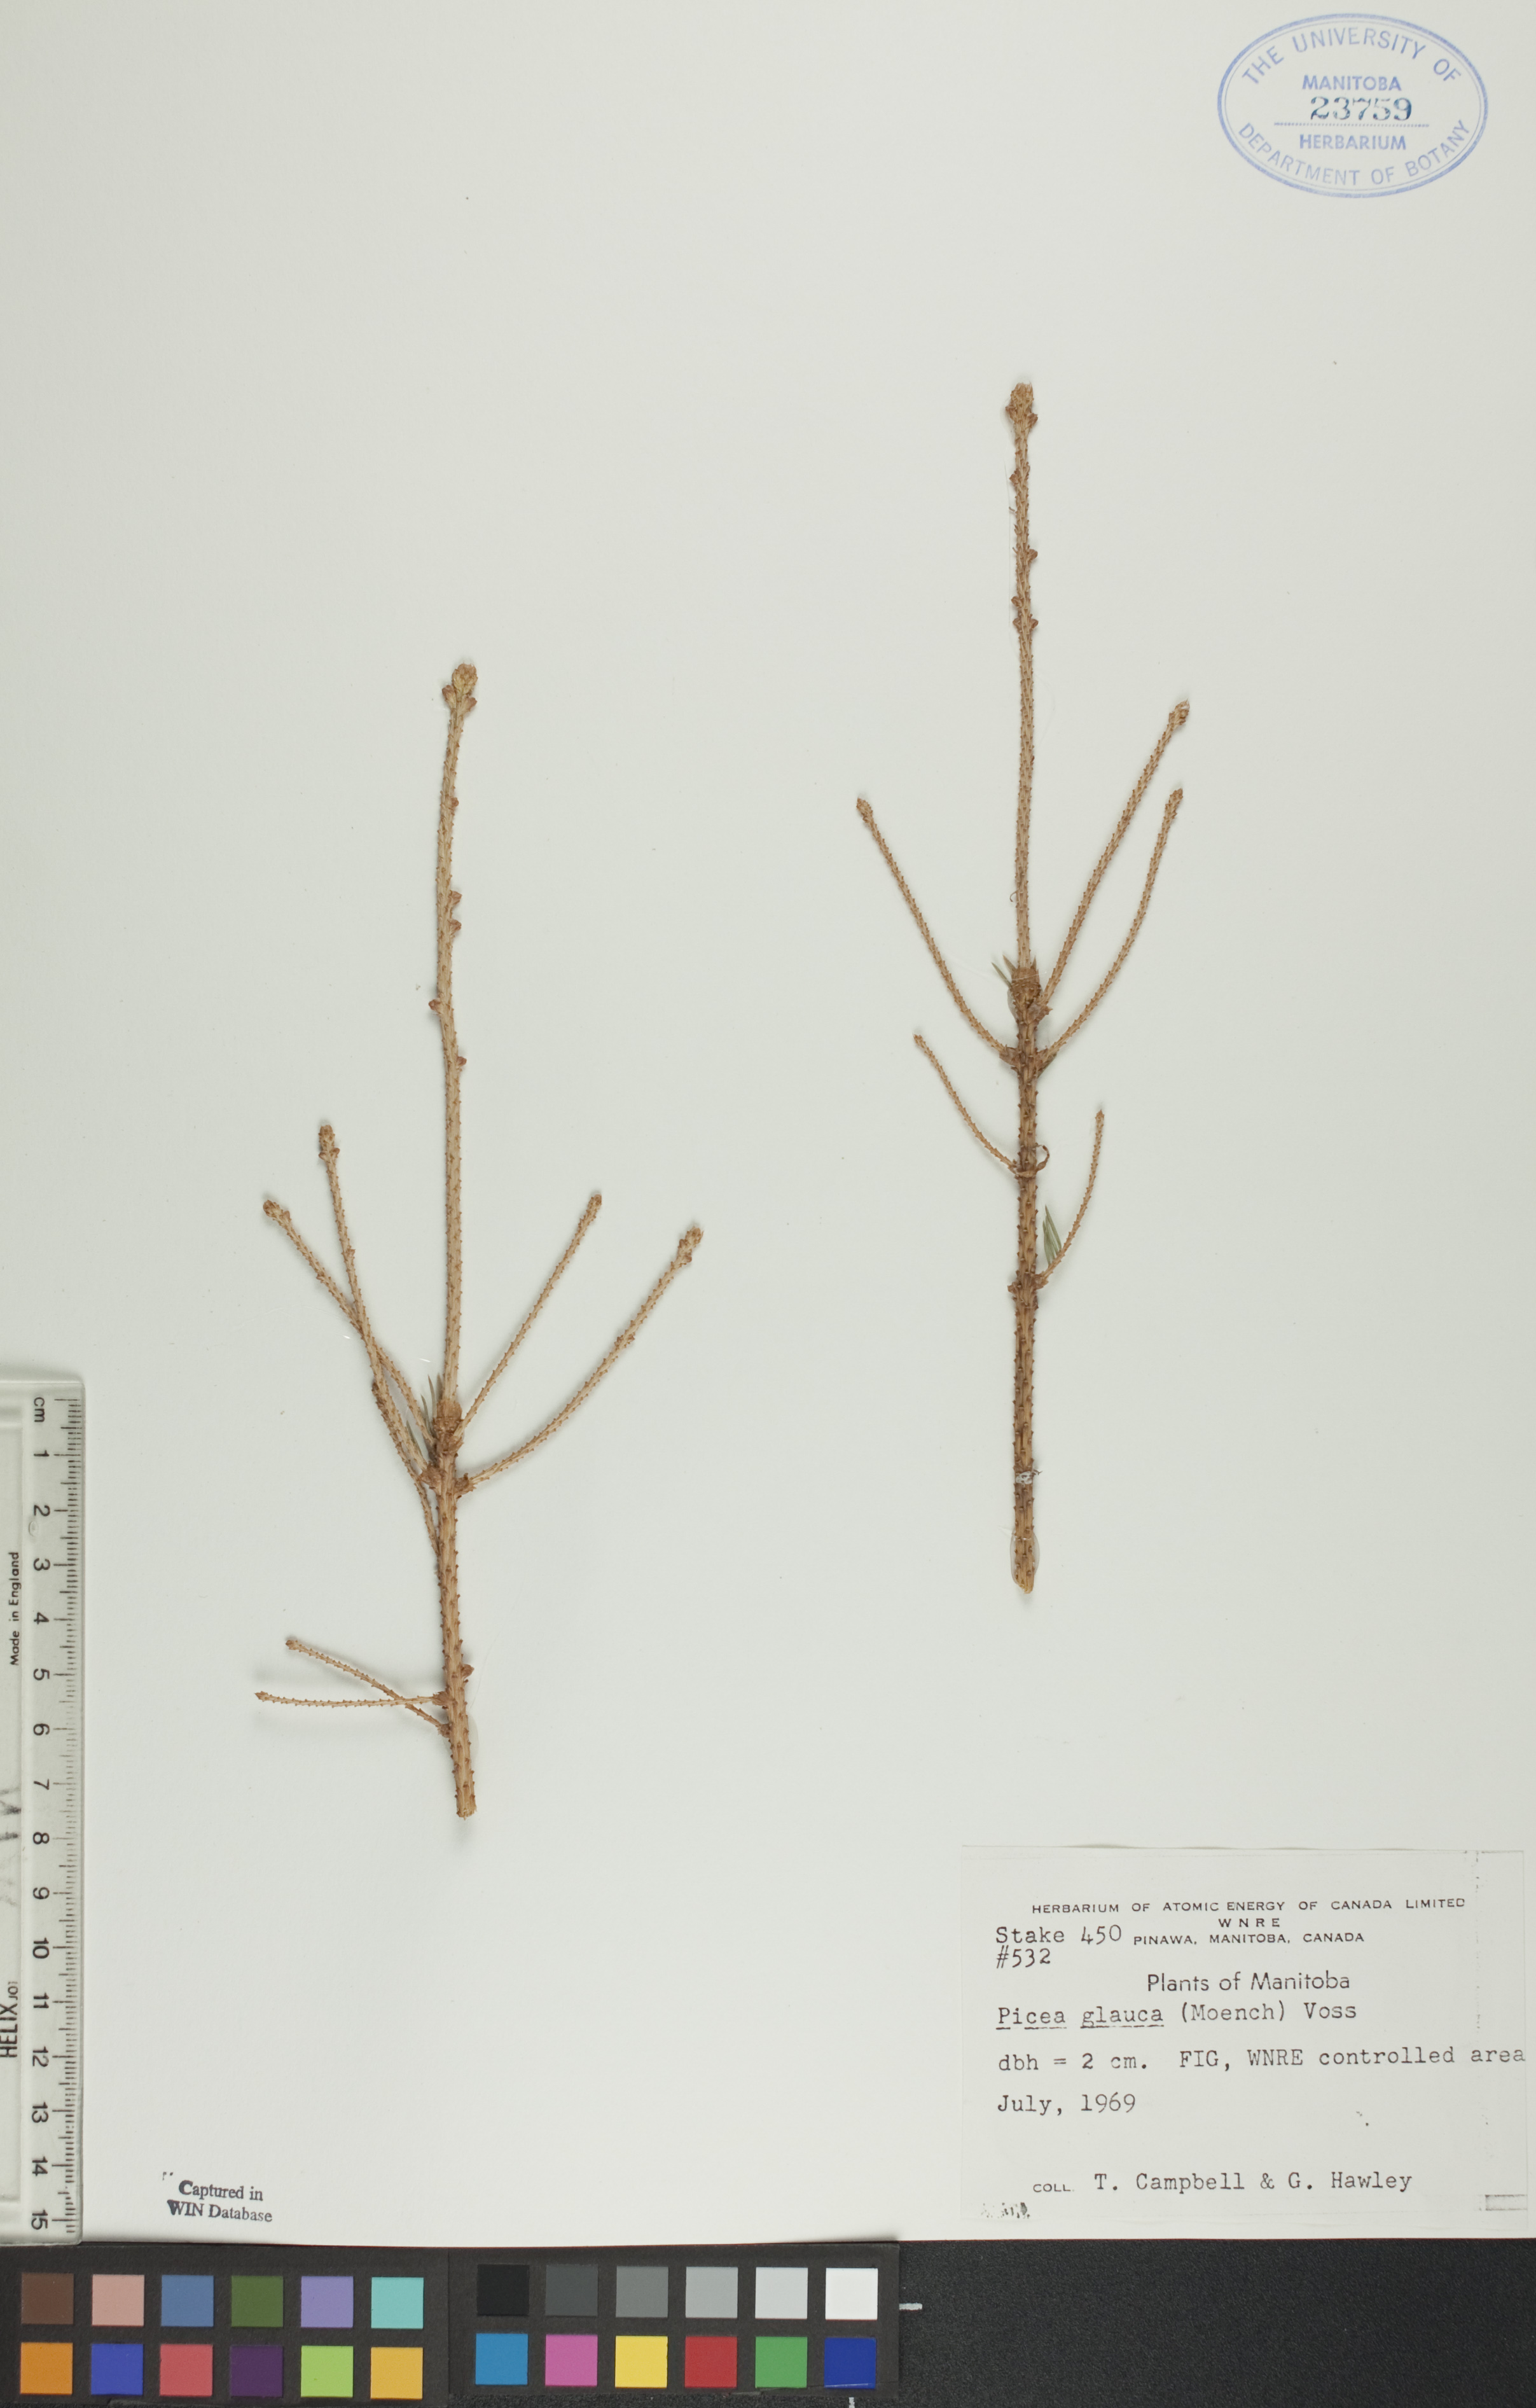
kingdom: Plantae
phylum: Tracheophyta
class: Pinopsida
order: Pinales
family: Pinaceae
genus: Picea
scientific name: Picea glauca
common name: White spruce
